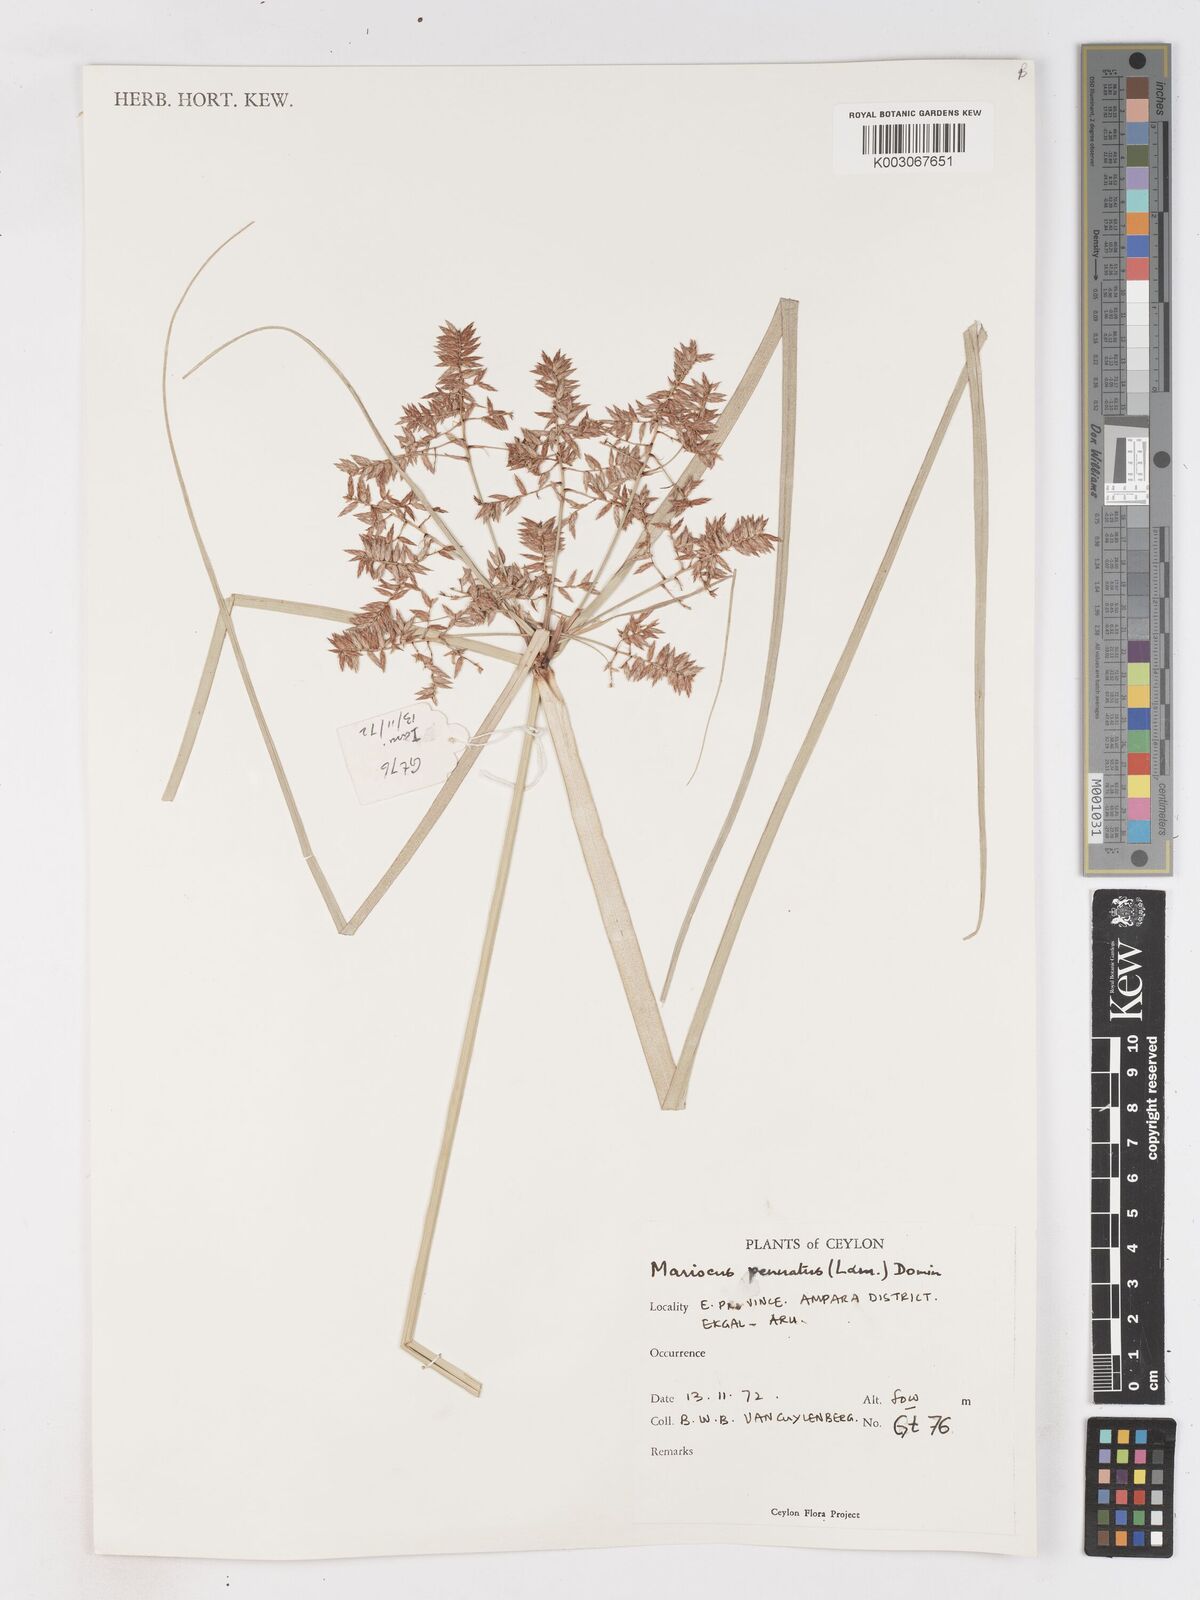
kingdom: Plantae
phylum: Tracheophyta
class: Liliopsida
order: Poales
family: Cyperaceae
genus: Cyperus
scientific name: Cyperus javanicus
